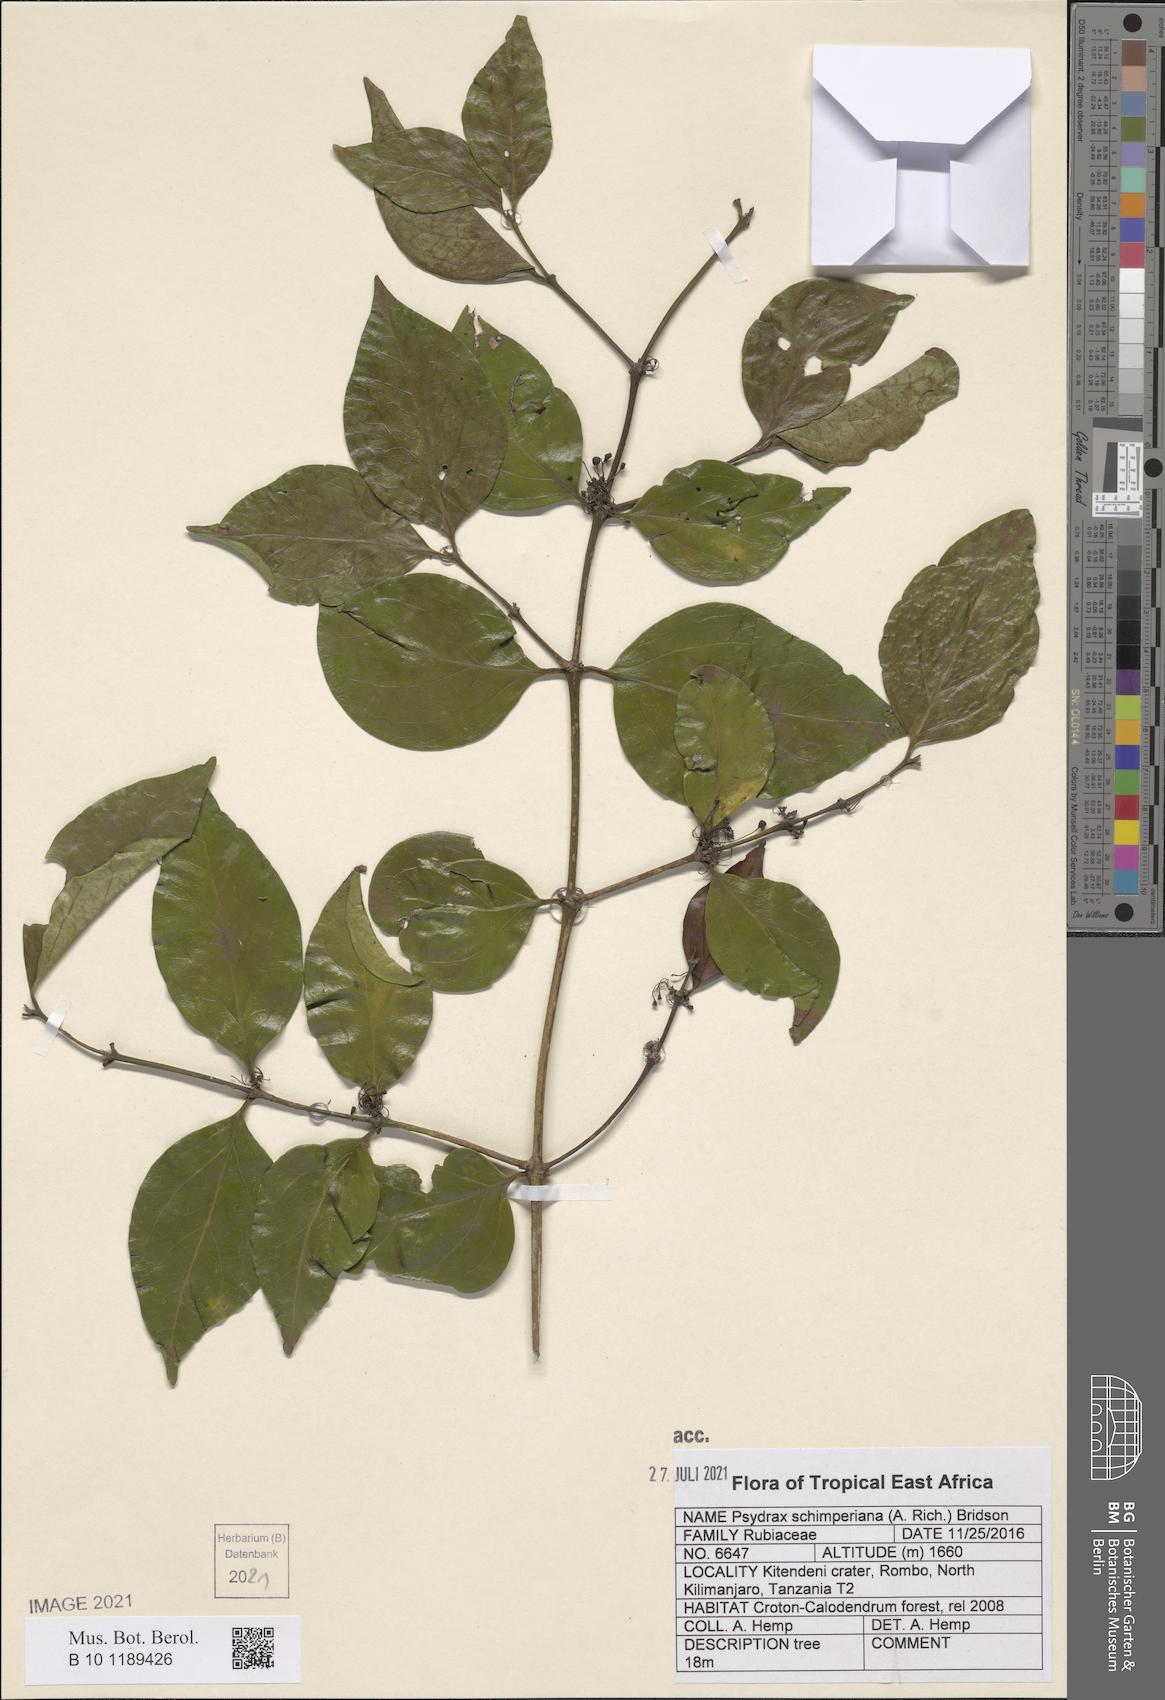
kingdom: Plantae
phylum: Tracheophyta
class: Magnoliopsida
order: Gentianales
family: Rubiaceae
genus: Psydrax
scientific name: Psydrax schimperianus
